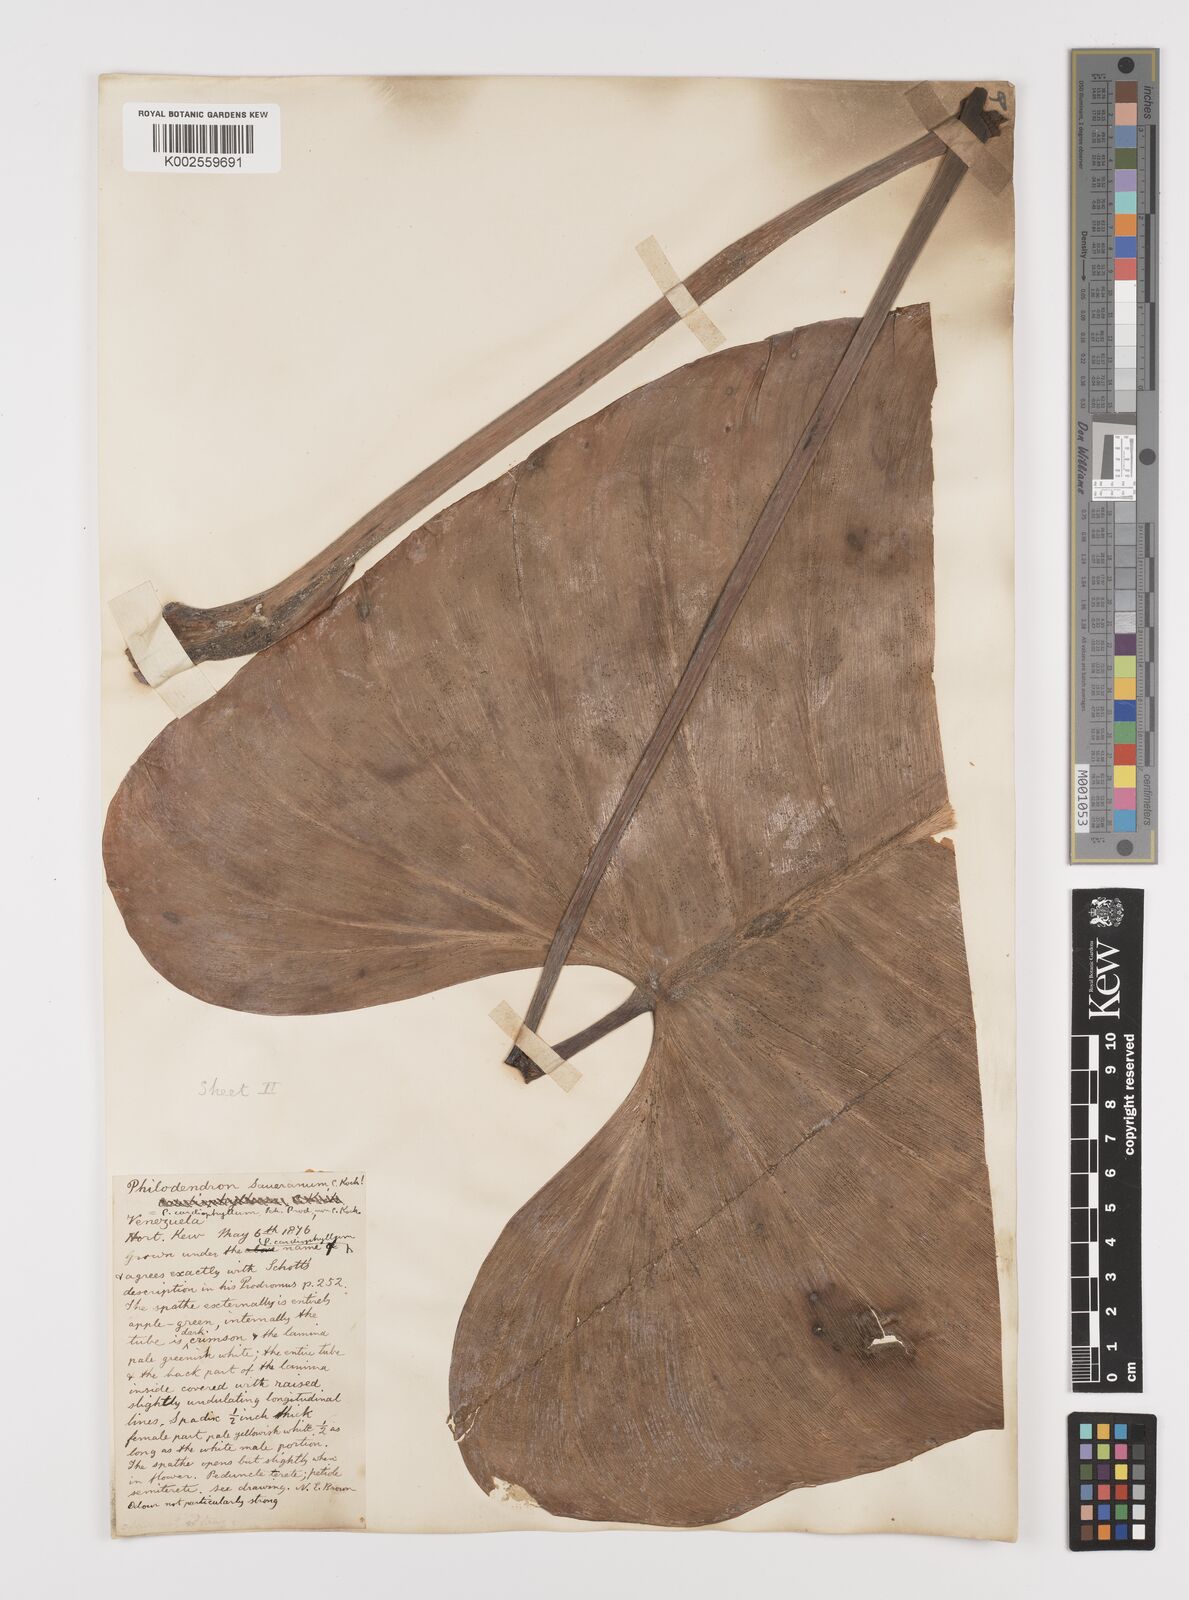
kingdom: Plantae
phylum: Tracheophyta
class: Liliopsida
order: Alismatales
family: Araceae
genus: Philodendron
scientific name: Philodendron eximium
